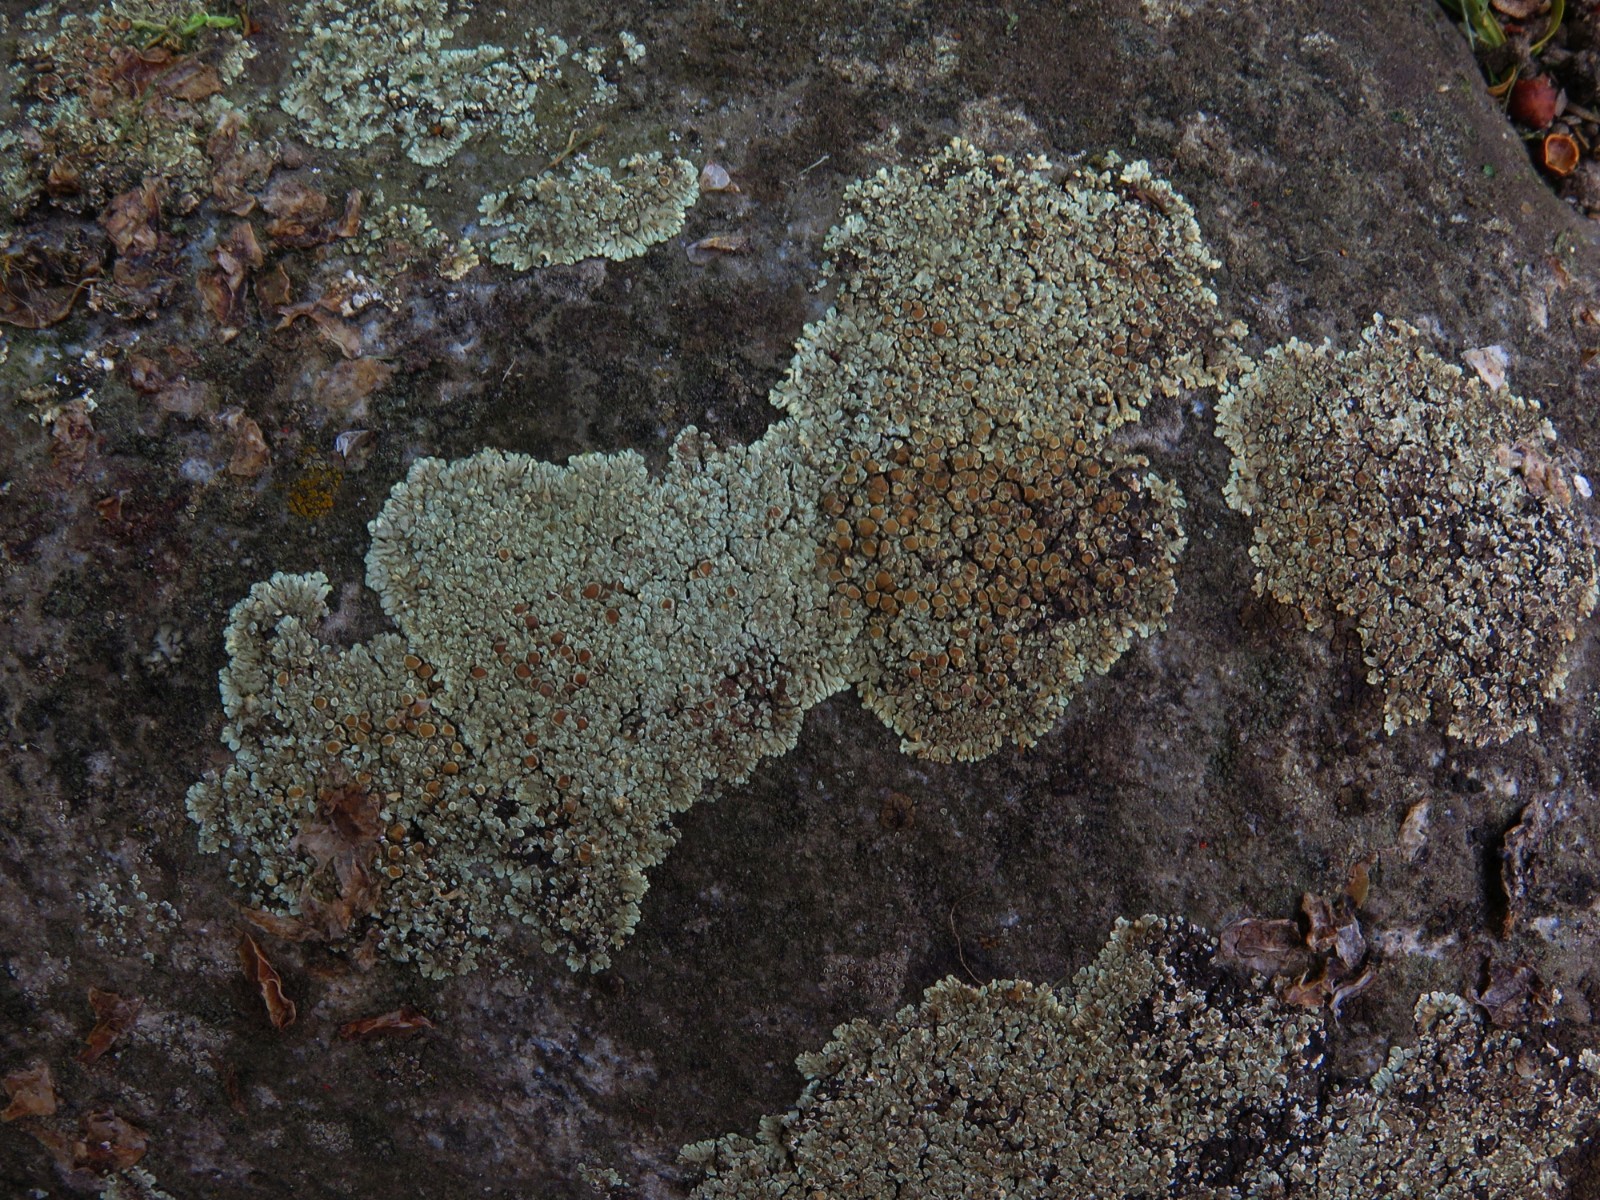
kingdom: Fungi
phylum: Ascomycota
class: Lecanoromycetes
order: Lecanorales
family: Lecanoraceae
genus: Protoparmeliopsis
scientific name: Protoparmeliopsis muralis
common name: randfliget kantskivelav
